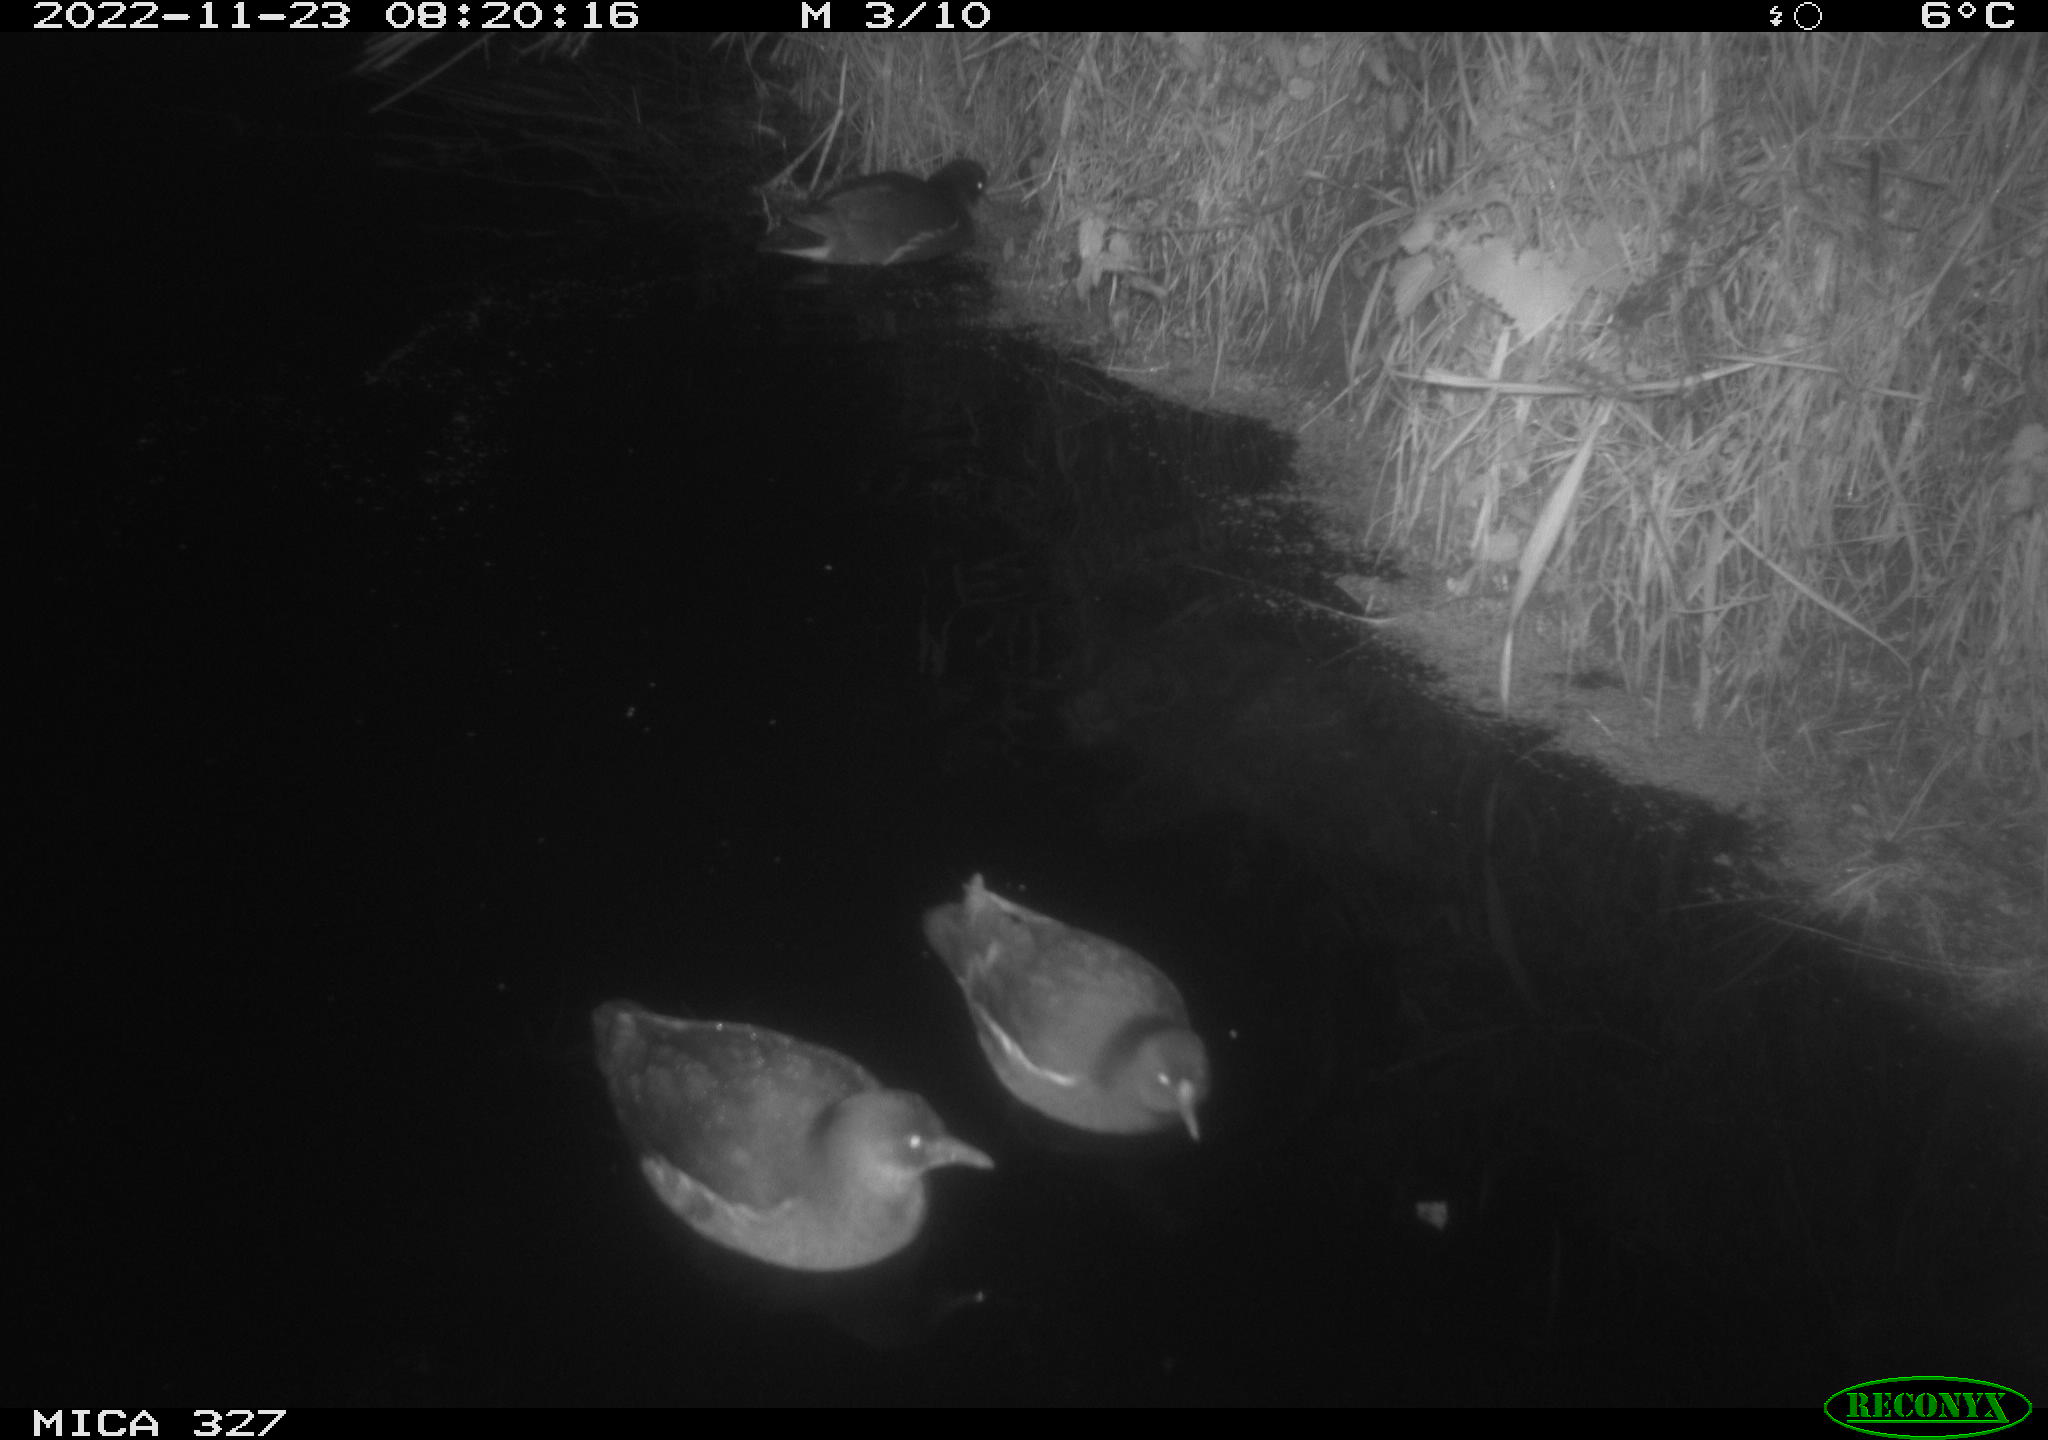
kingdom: Animalia
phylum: Chordata
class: Aves
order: Gruiformes
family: Rallidae
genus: Gallinula
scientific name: Gallinula chloropus
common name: Common moorhen
